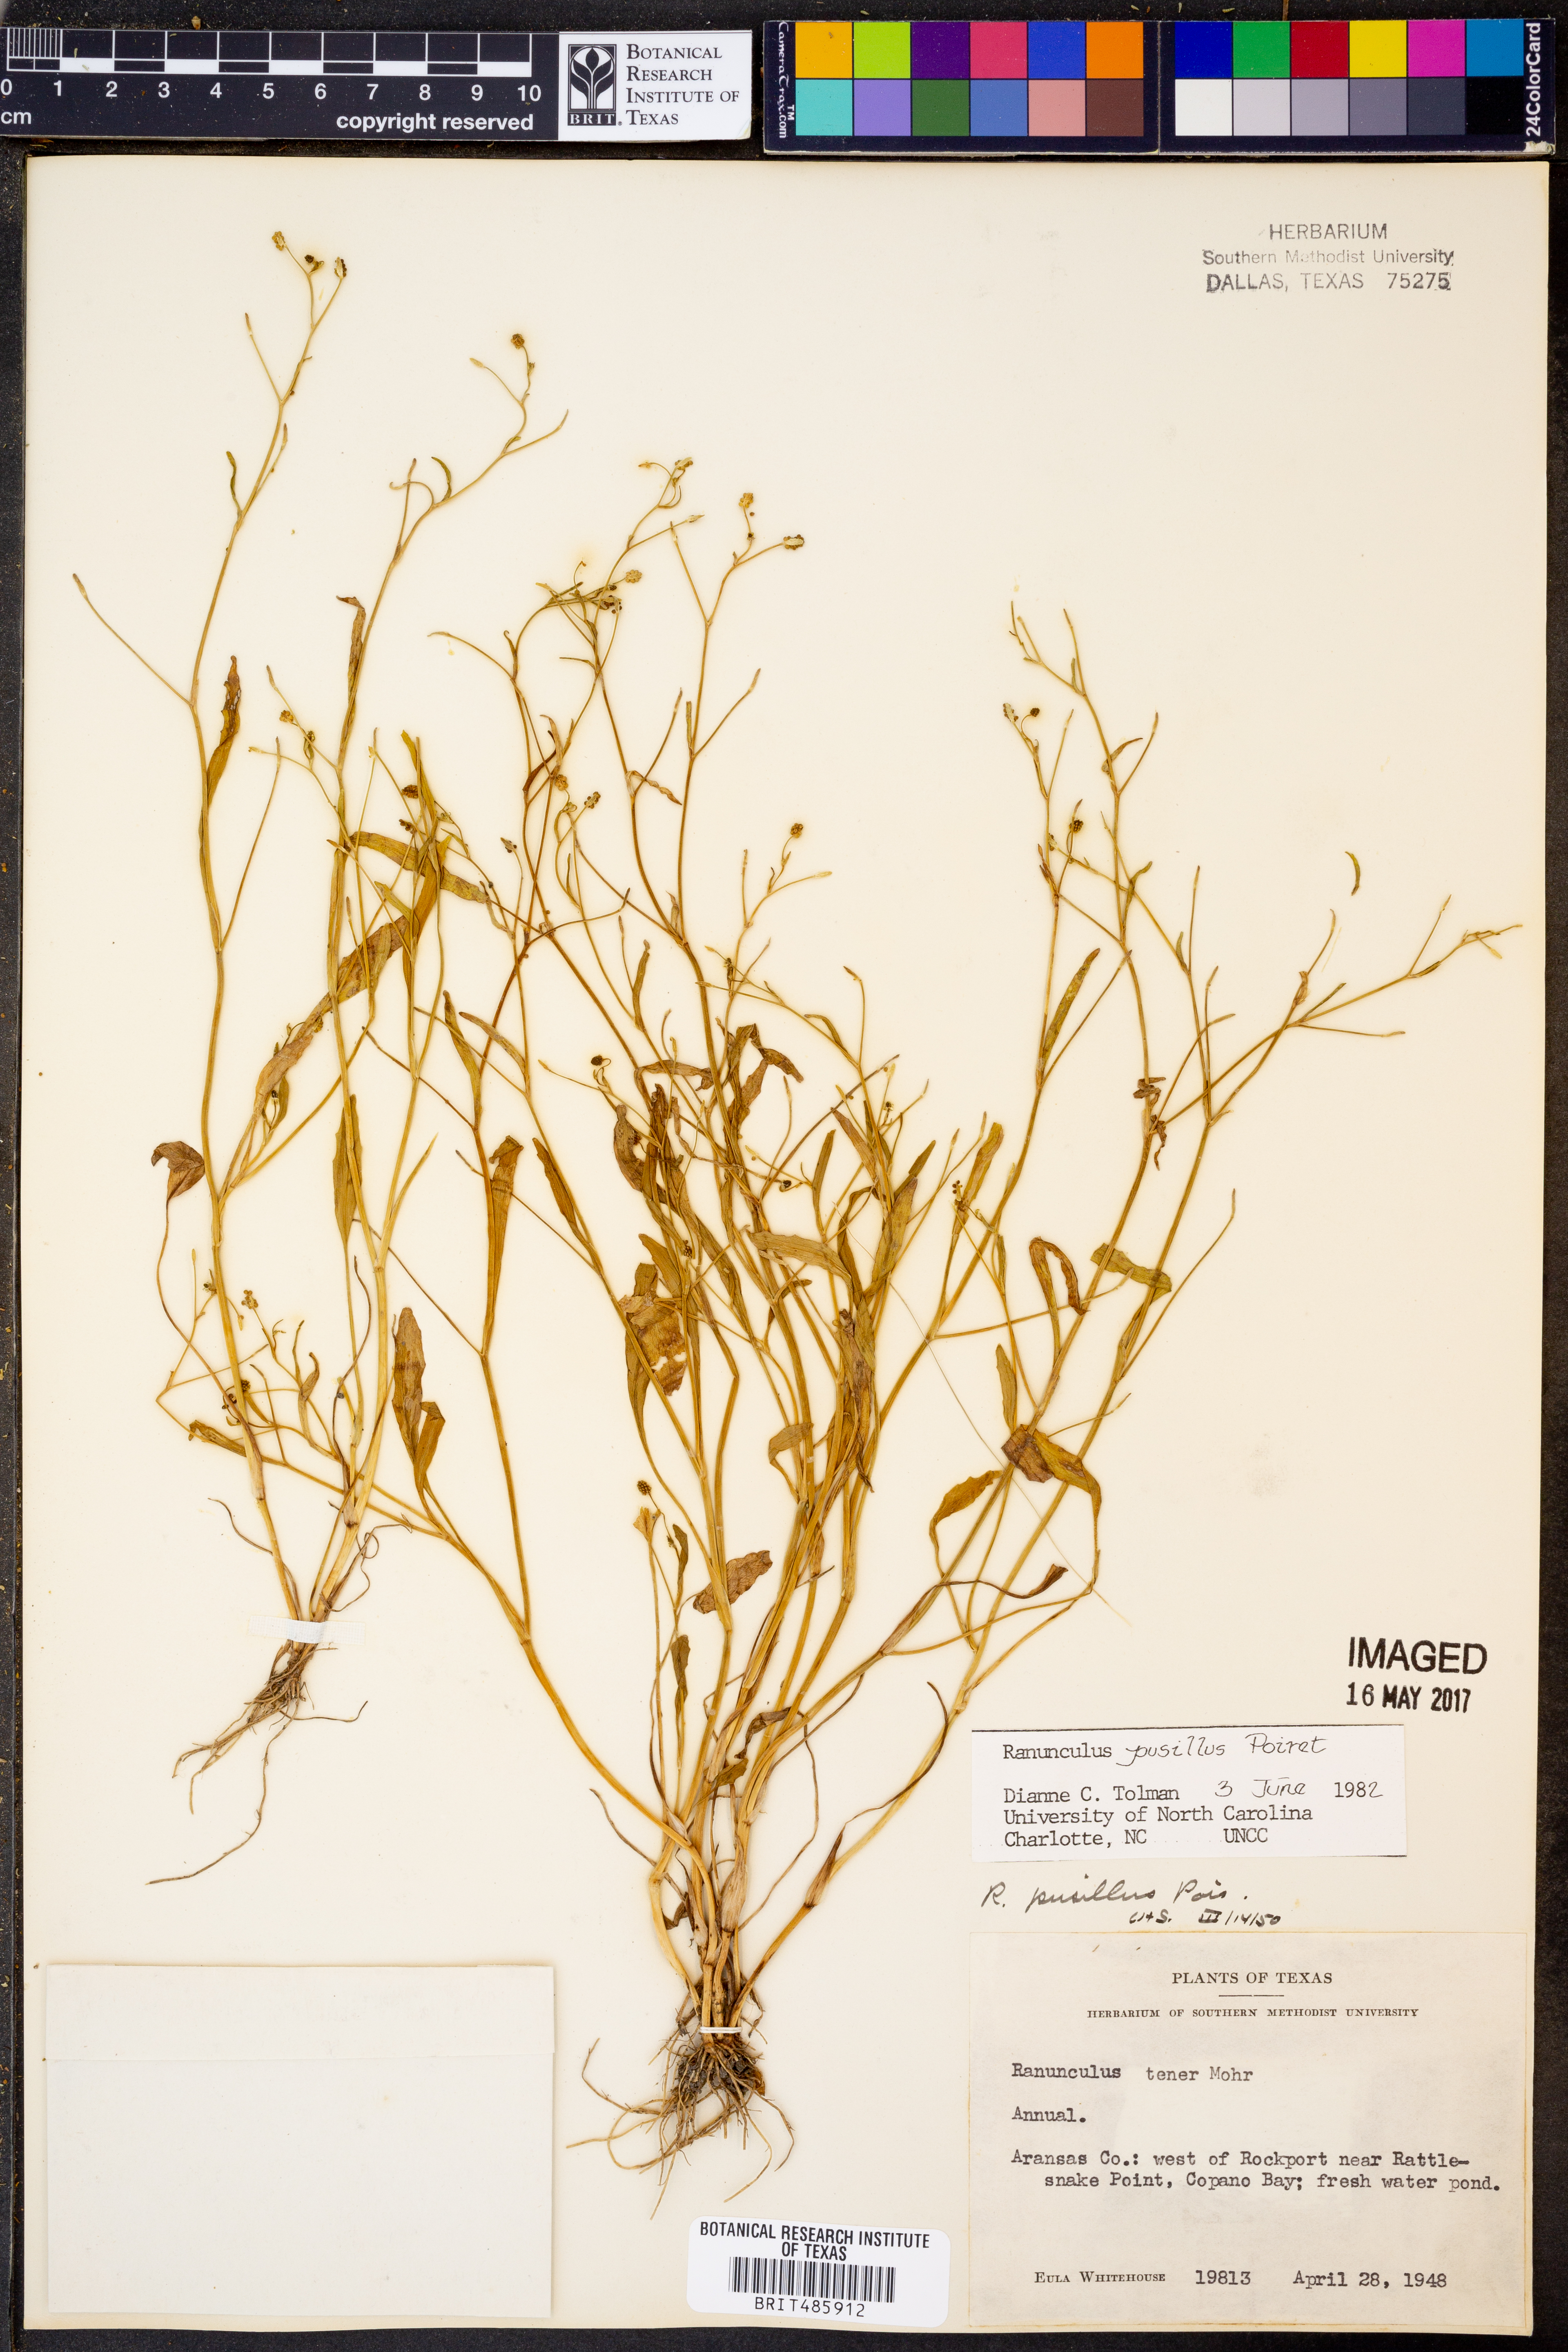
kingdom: Plantae
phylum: Tracheophyta
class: Magnoliopsida
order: Ranunculales
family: Ranunculaceae
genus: Ranunculus
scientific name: Ranunculus pusillus
